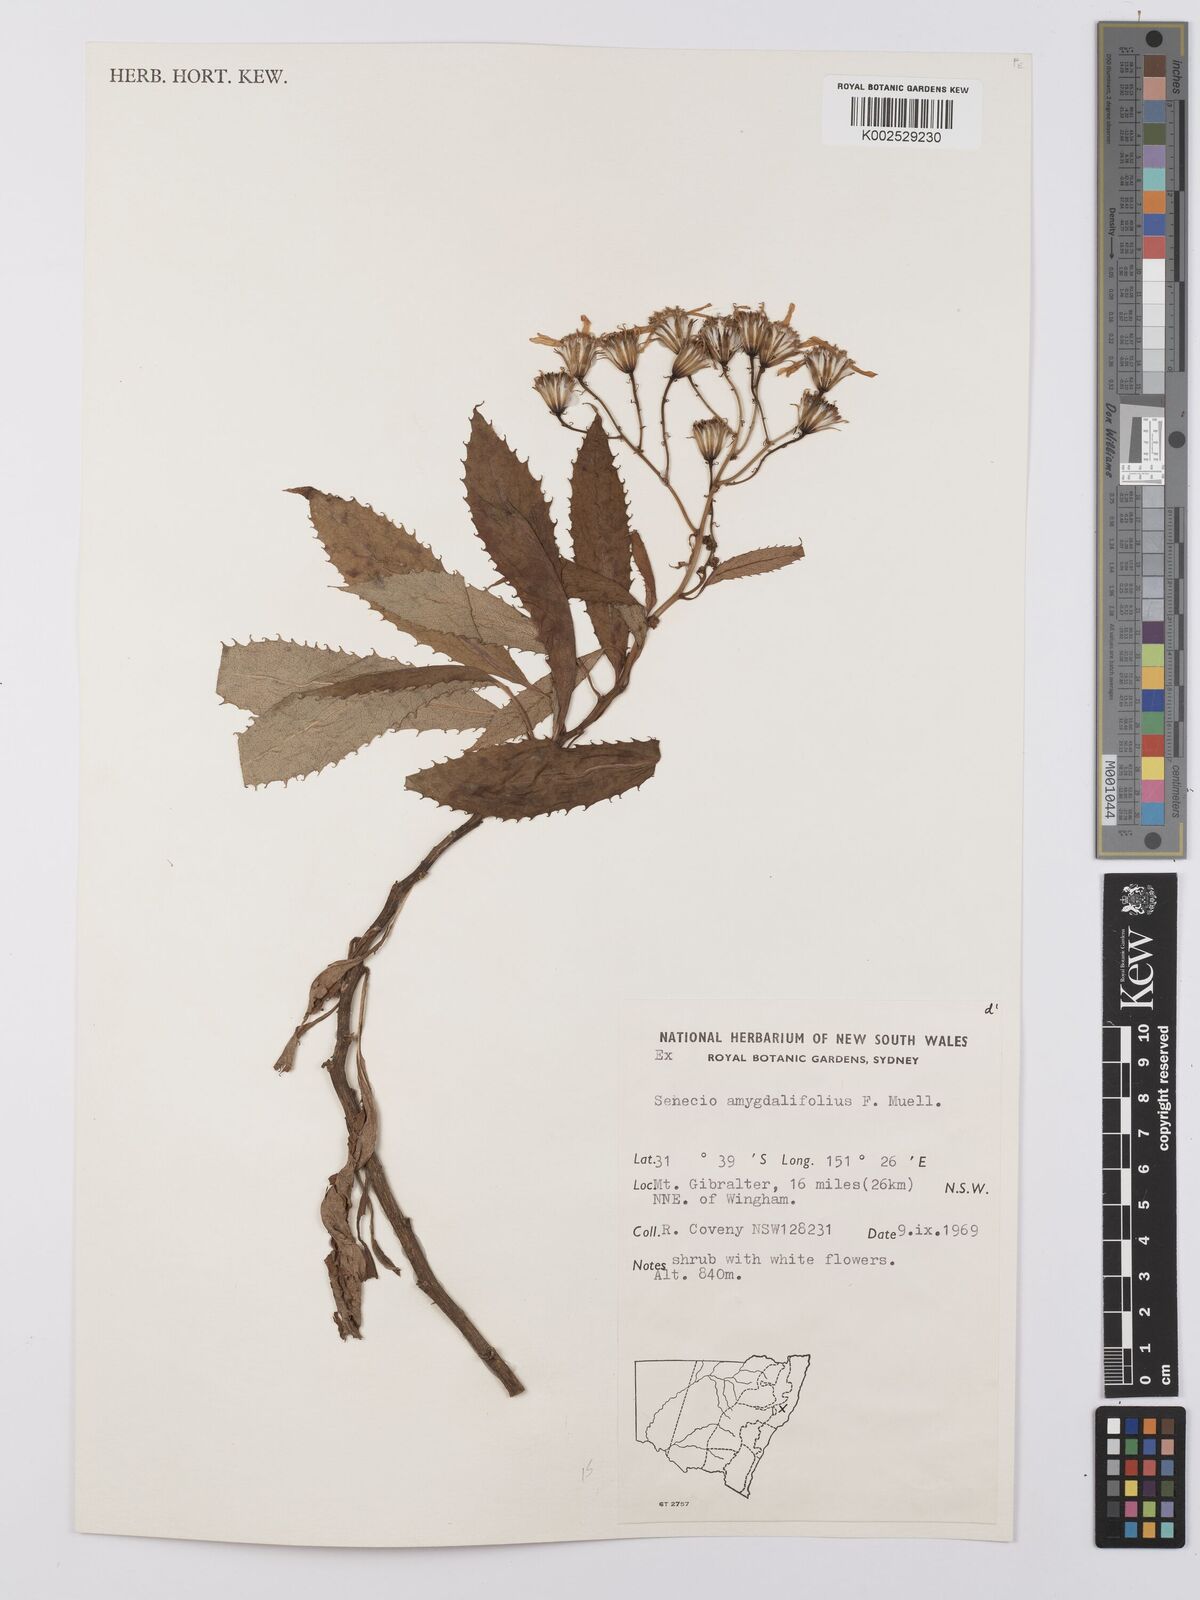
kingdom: Plantae
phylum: Tracheophyta
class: Magnoliopsida
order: Asterales
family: Asteraceae
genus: Lordhowea
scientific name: Lordhowea amygdalifolia
